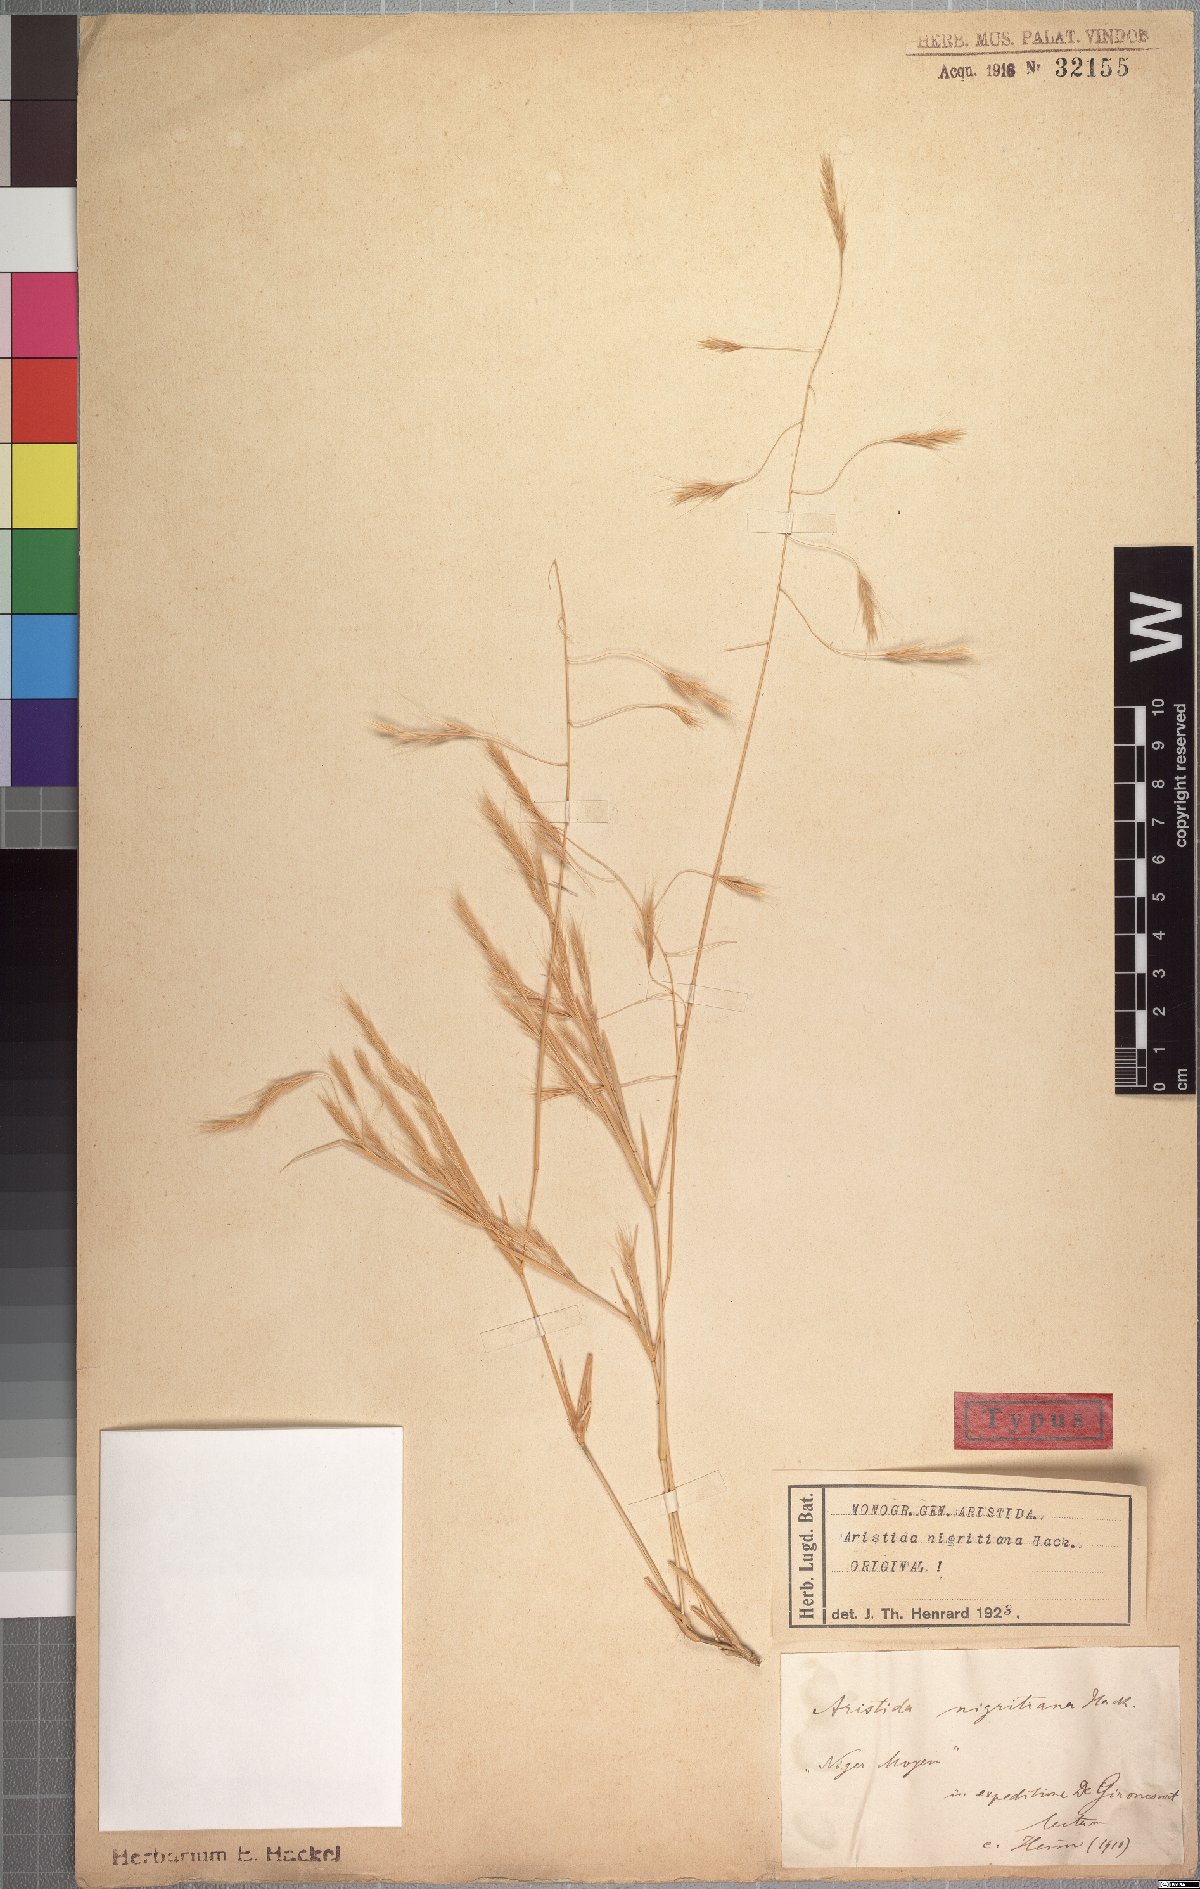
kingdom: Plantae
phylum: Tracheophyta
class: Liliopsida
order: Poales
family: Poaceae
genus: Aristida
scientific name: Aristida mutabilis
